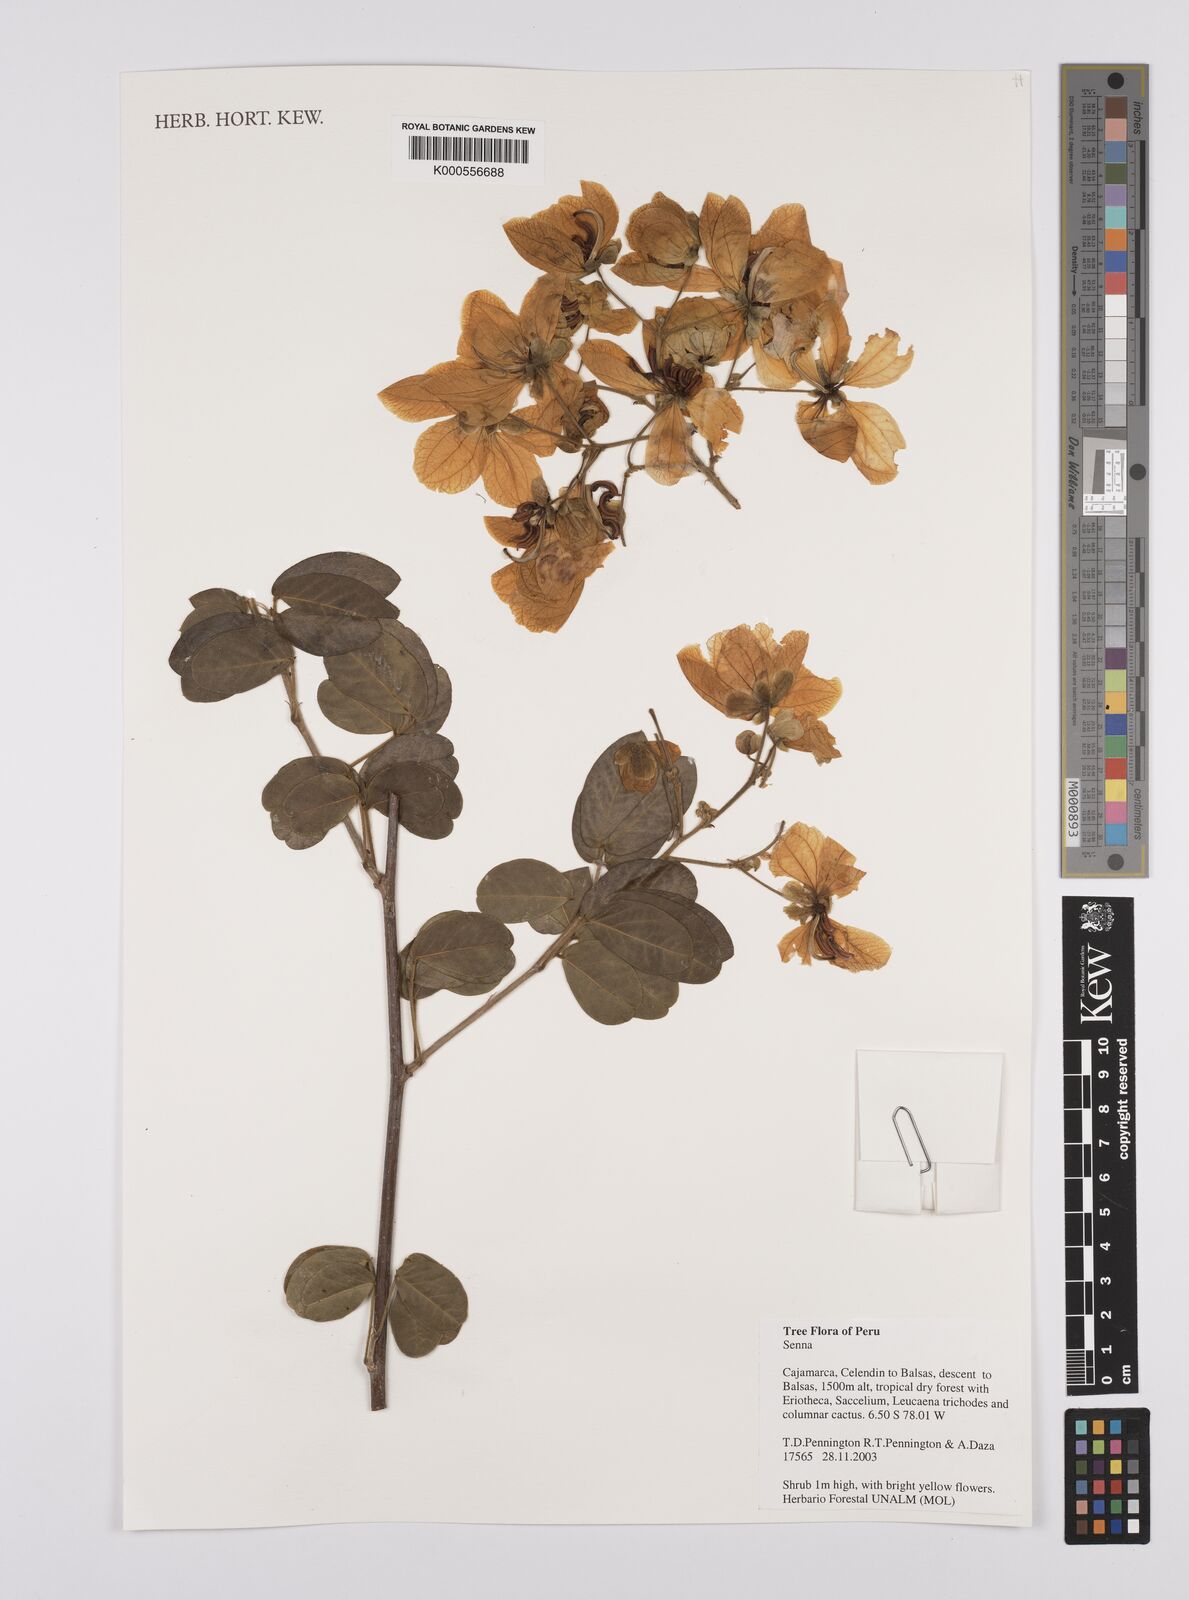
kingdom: Plantae
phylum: Tracheophyta
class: Magnoliopsida
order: Fabales
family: Fabaceae
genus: Senna
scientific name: Senna
